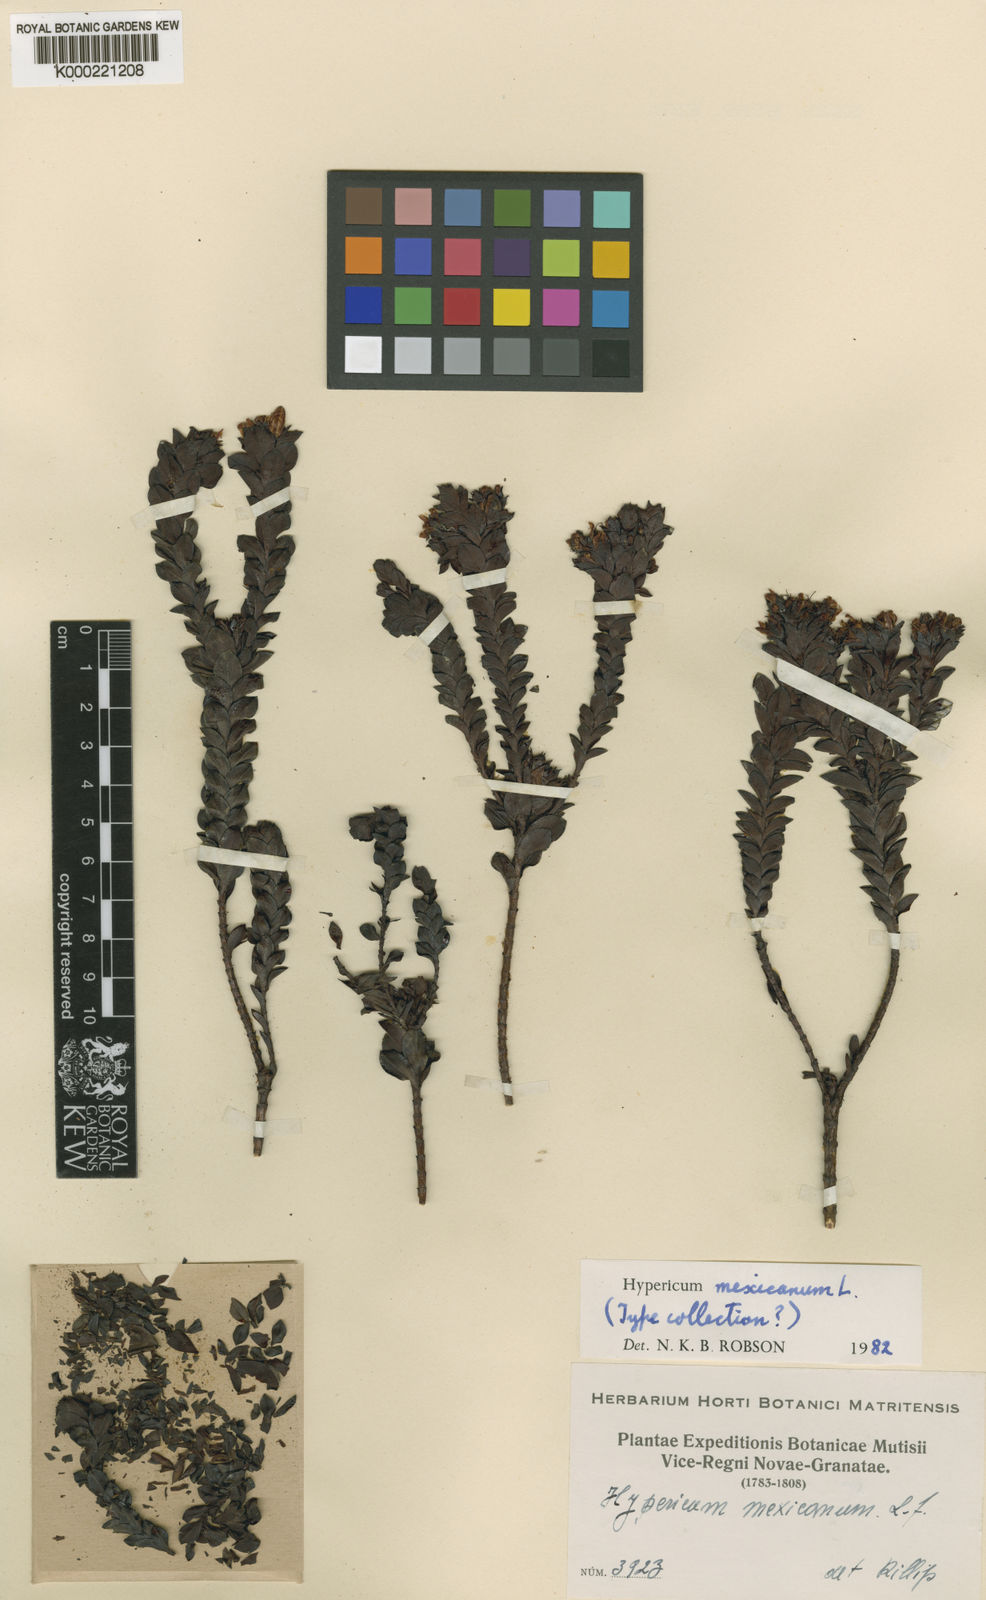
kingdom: Plantae
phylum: Tracheophyta
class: Magnoliopsida
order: Malpighiales
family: Hypericaceae
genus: Hypericum
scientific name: Hypericum mexicanum
